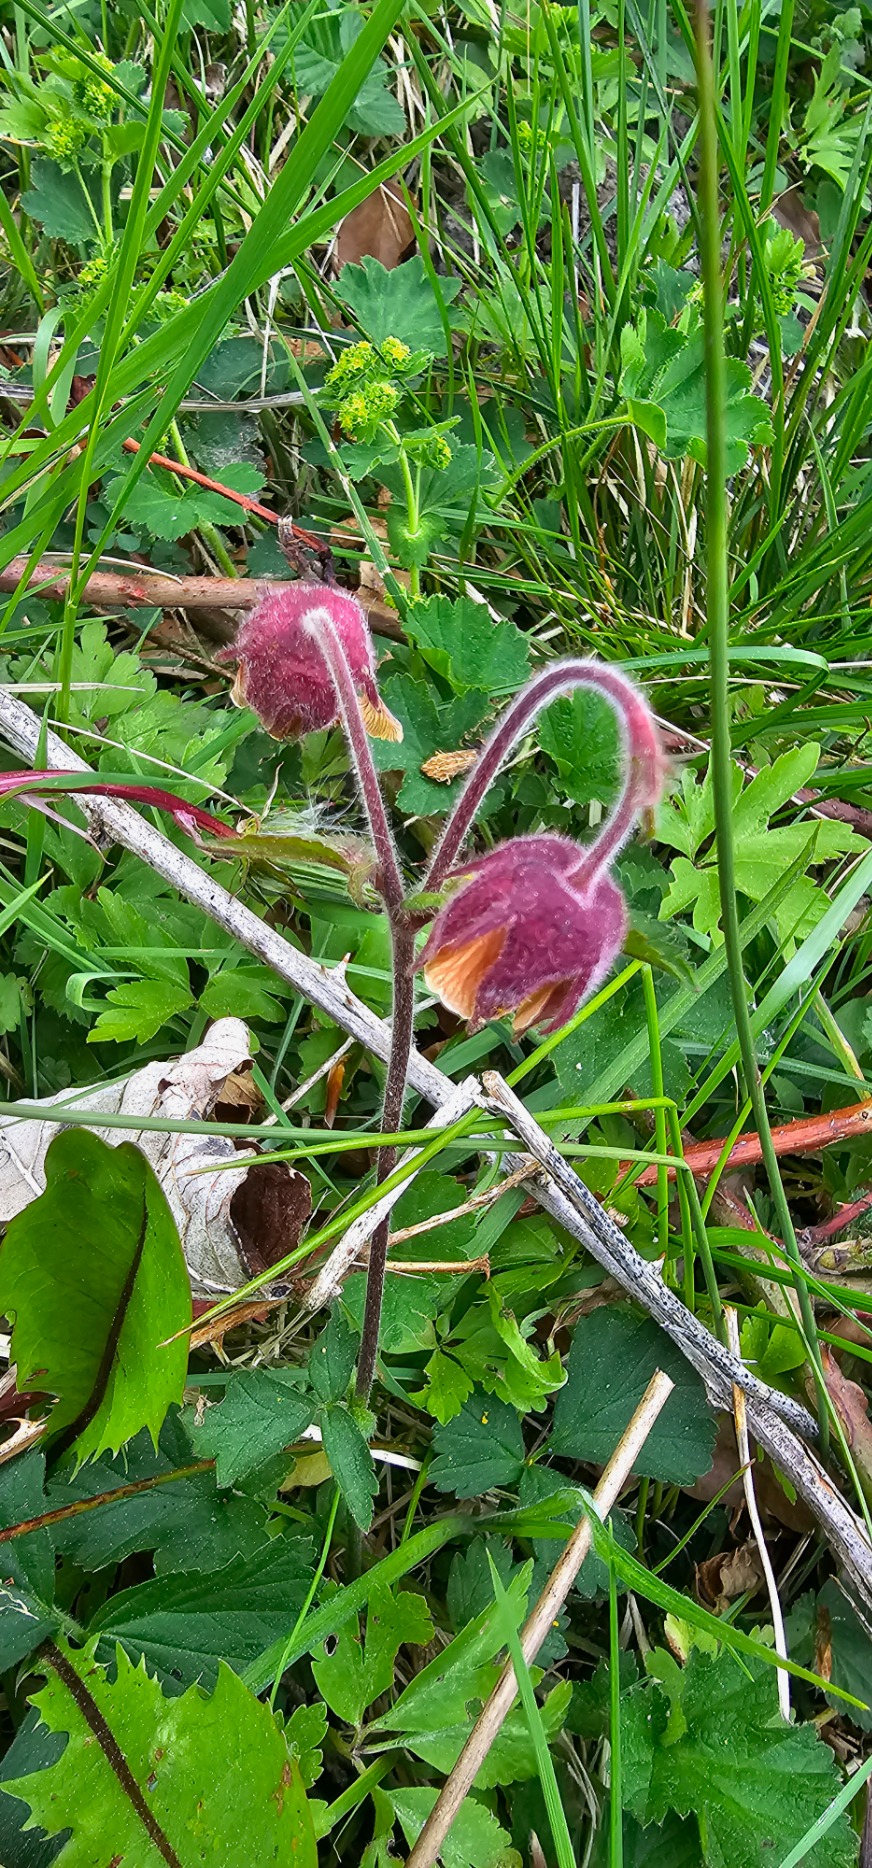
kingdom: Plantae
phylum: Tracheophyta
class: Magnoliopsida
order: Rosales
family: Rosaceae
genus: Geum
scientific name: Geum rivale
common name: Eng-nellikerod
